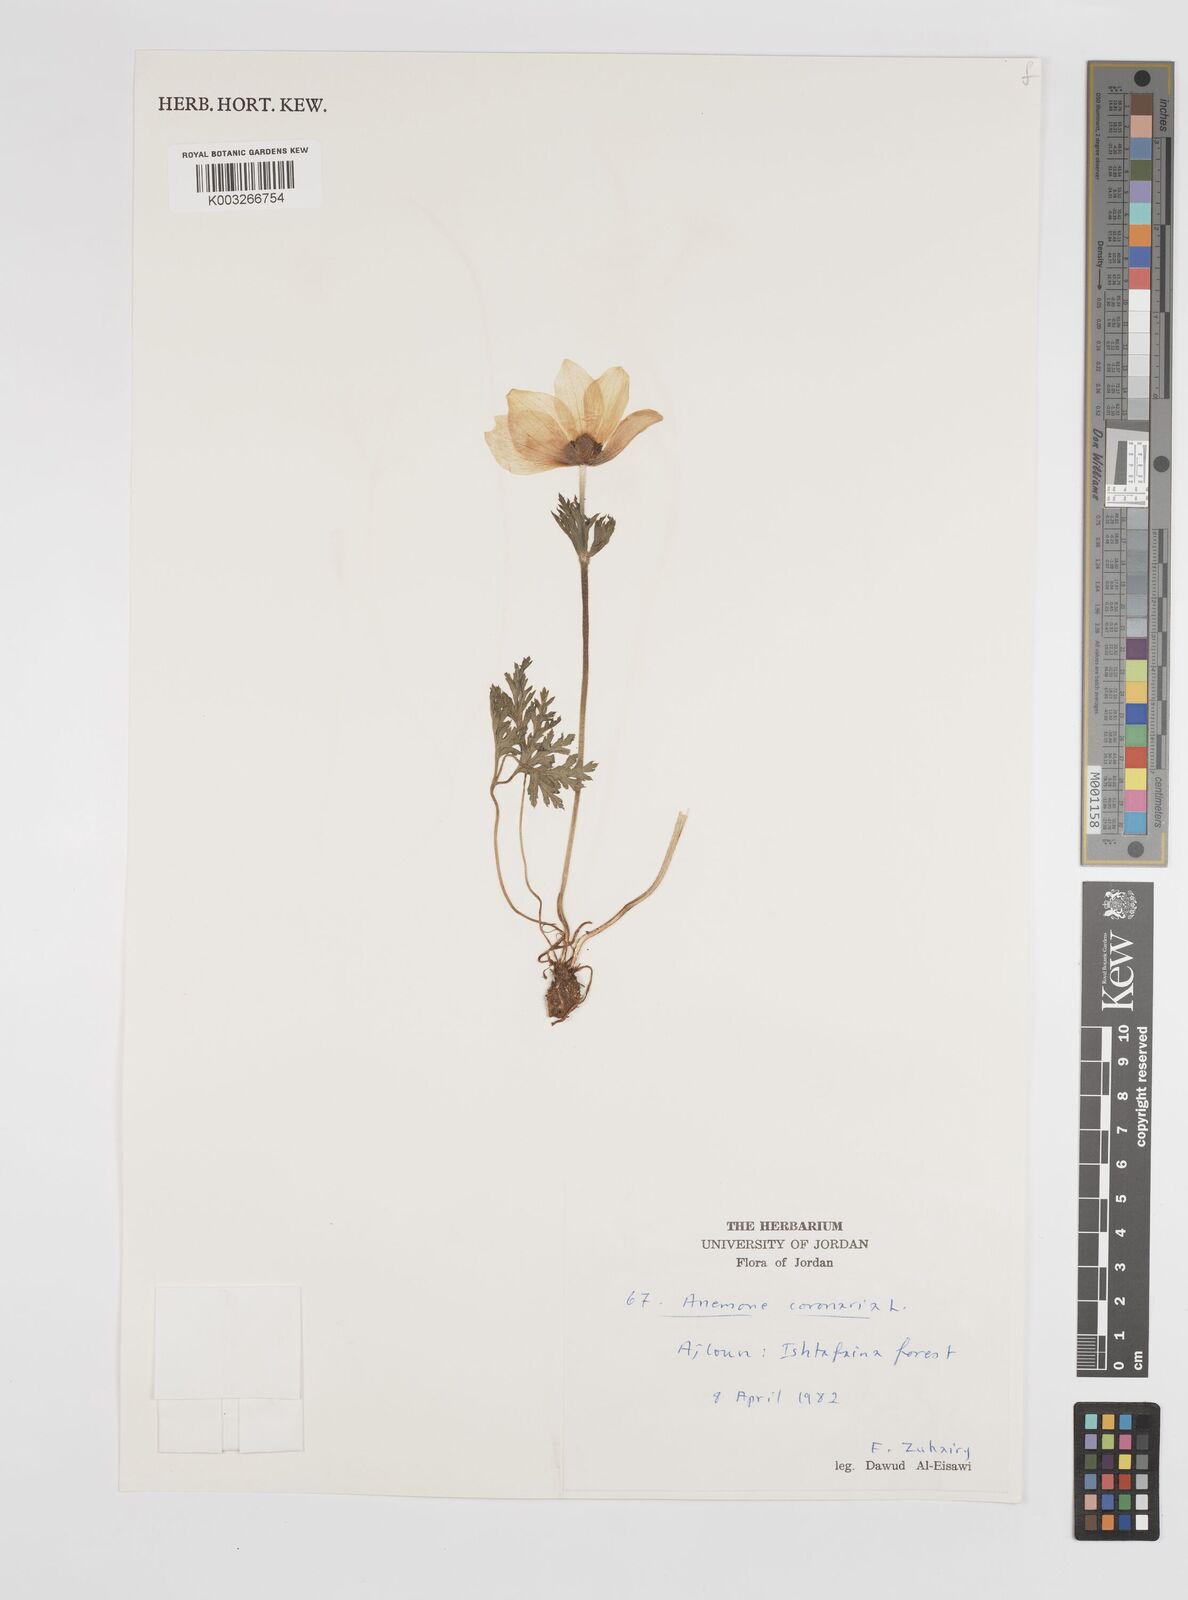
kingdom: Plantae
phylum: Tracheophyta
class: Magnoliopsida
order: Ranunculales
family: Ranunculaceae
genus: Anemone
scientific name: Anemone coronaria
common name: Poppy anemone
